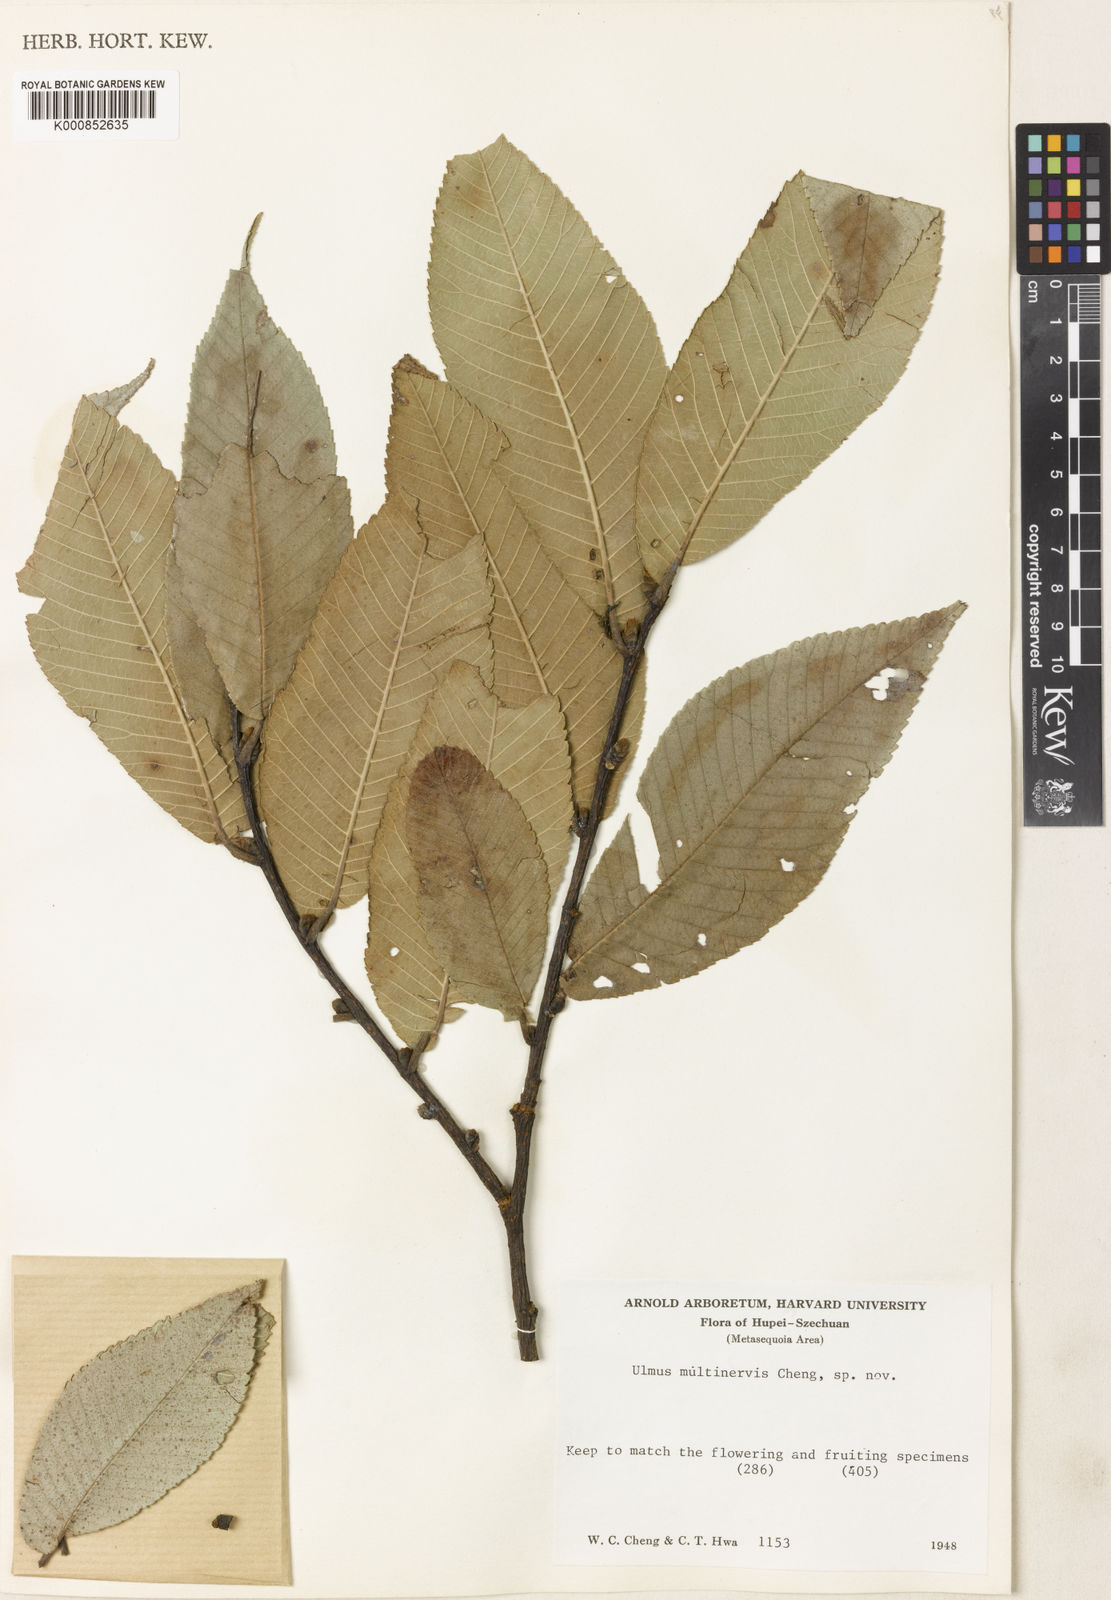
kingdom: Plantae
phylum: Tracheophyta
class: Magnoliopsida
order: Rosales
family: Ulmaceae
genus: Ulmus
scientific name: Ulmus castaneifolia
